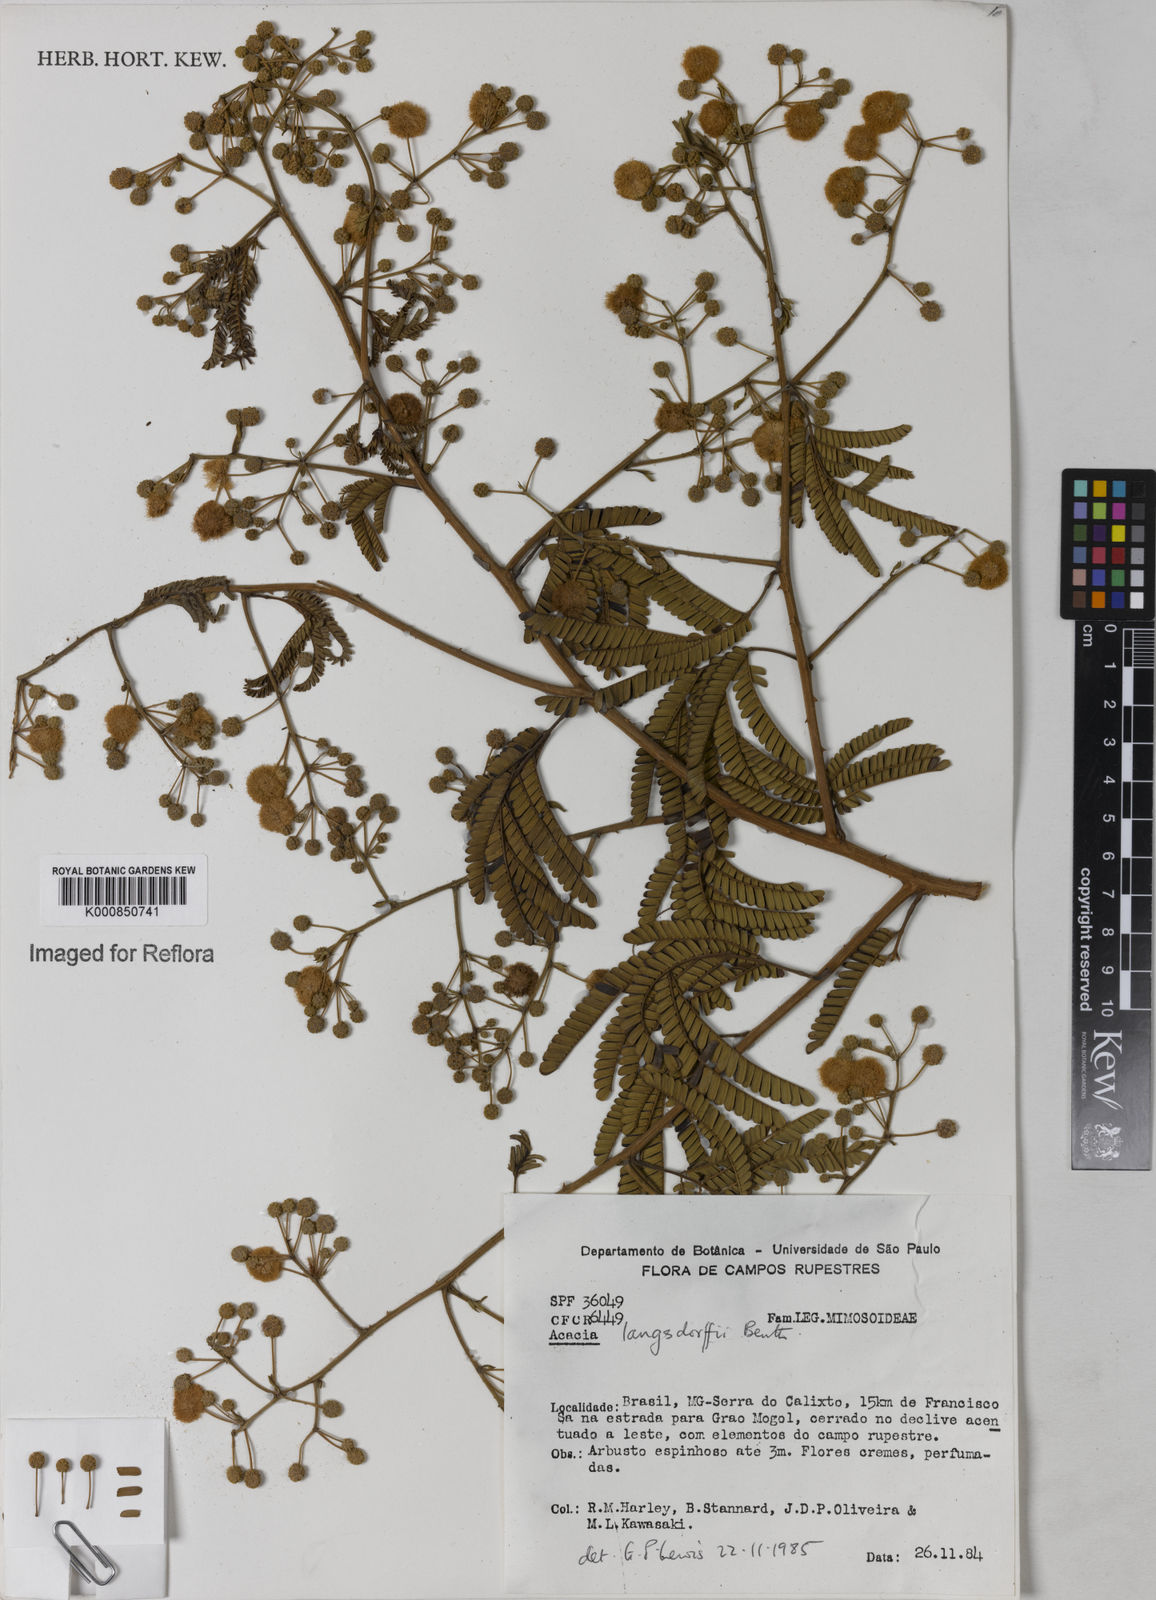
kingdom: Plantae
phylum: Tracheophyta
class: Magnoliopsida
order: Fabales
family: Fabaceae
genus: Senegalia
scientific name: Senegalia langsdorffii
